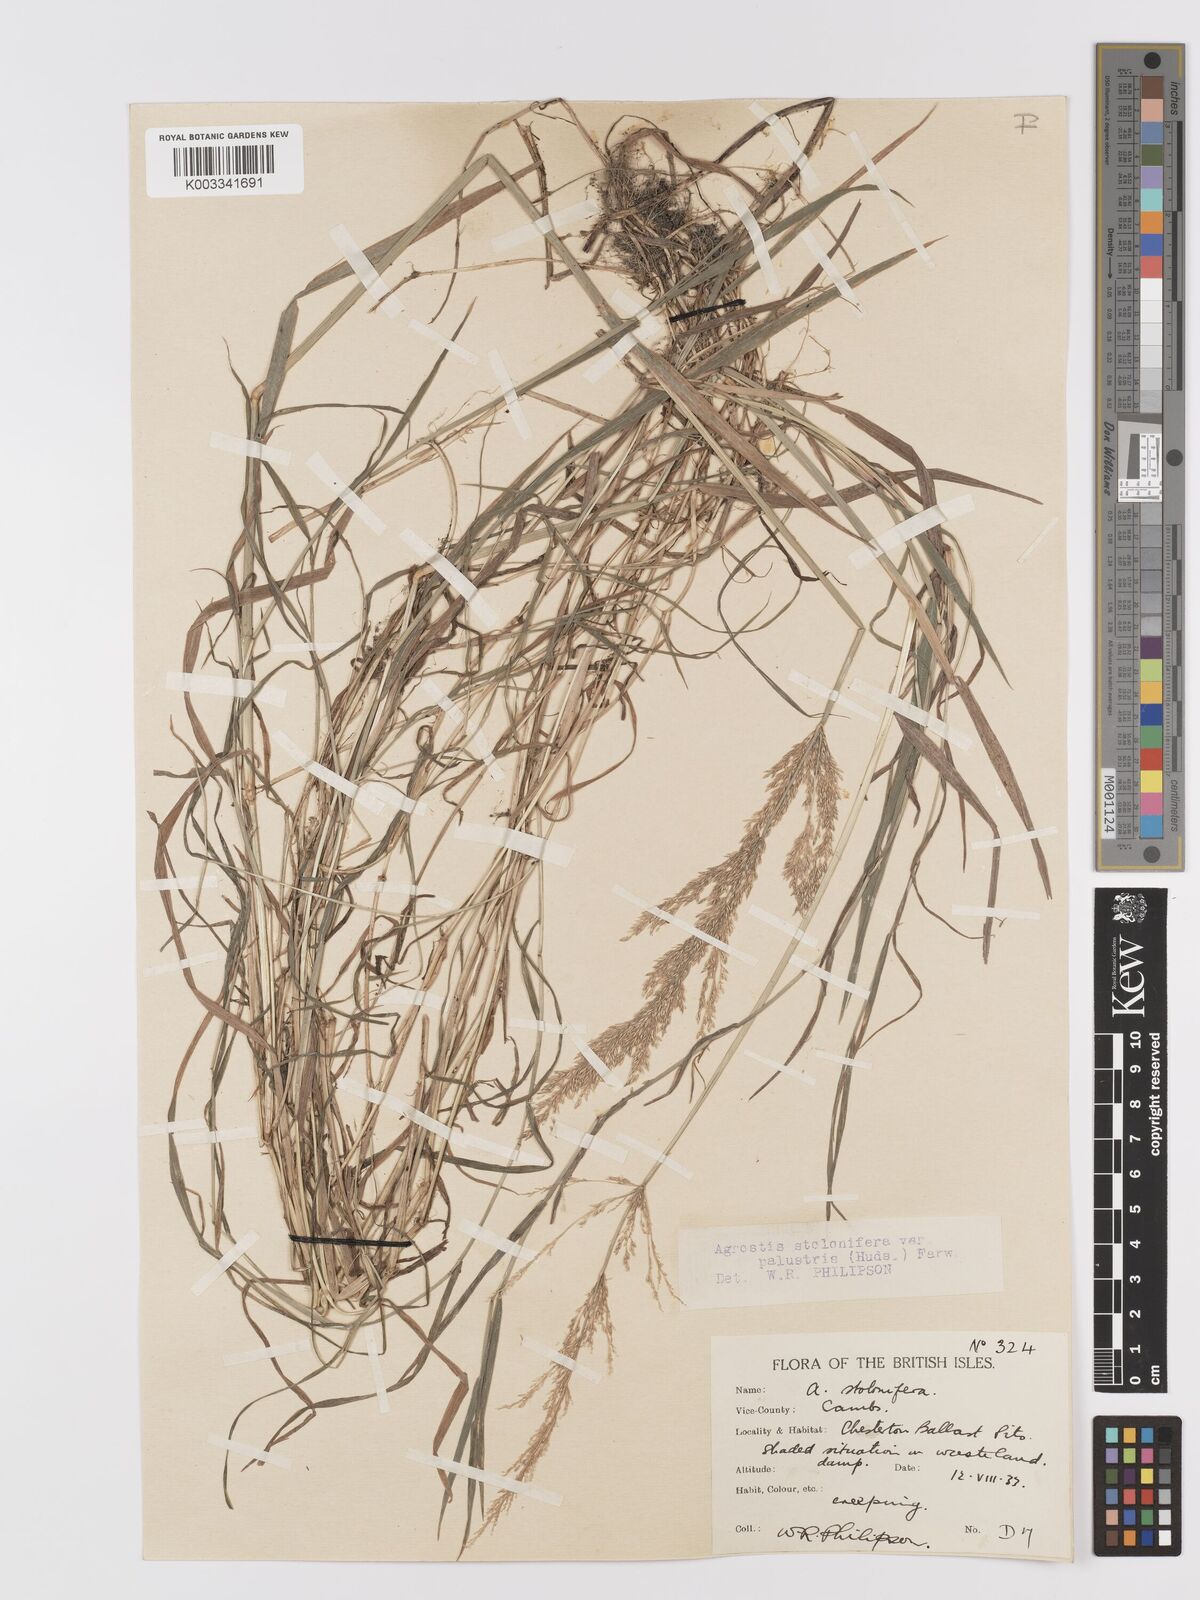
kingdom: Plantae
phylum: Tracheophyta
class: Liliopsida
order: Poales
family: Poaceae
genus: Agrostis
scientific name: Agrostis stolonifera
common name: Creeping bentgrass
